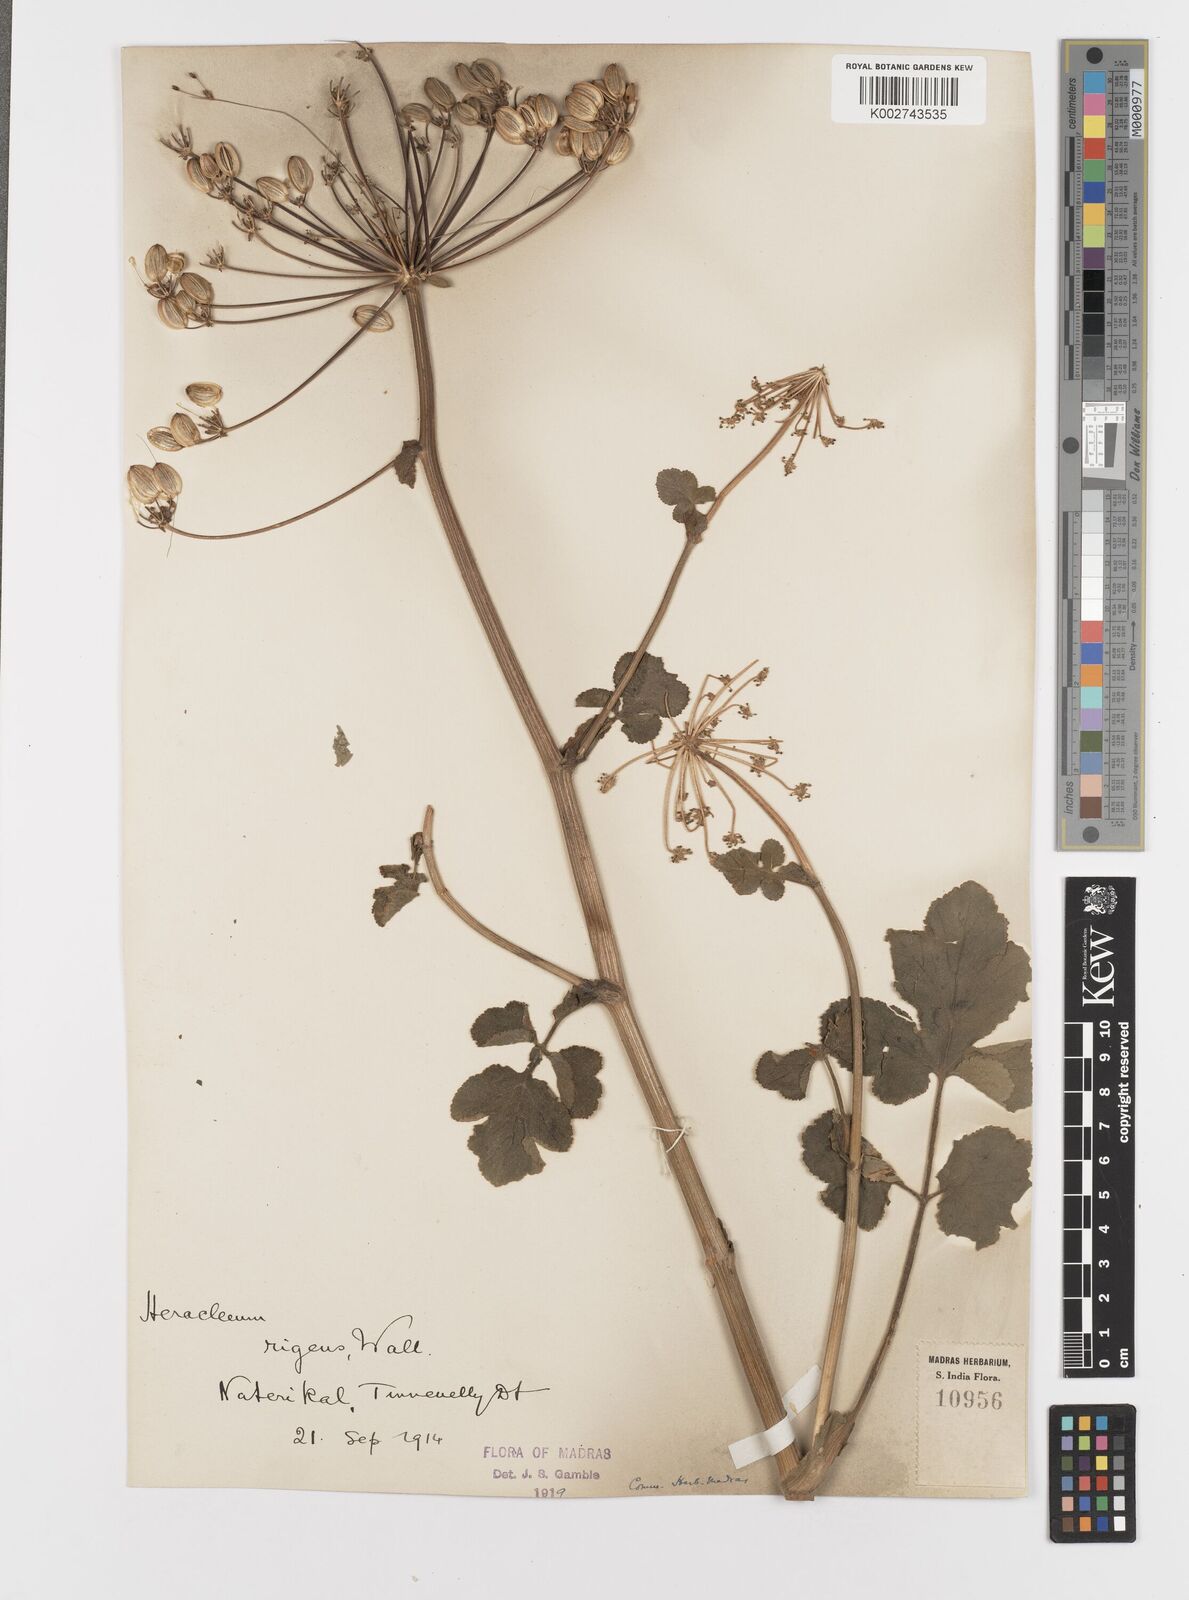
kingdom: Plantae
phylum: Tracheophyta
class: Magnoliopsida
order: Apiales
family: Apiaceae
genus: Tetrataenium
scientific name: Tetrataenium rigens
